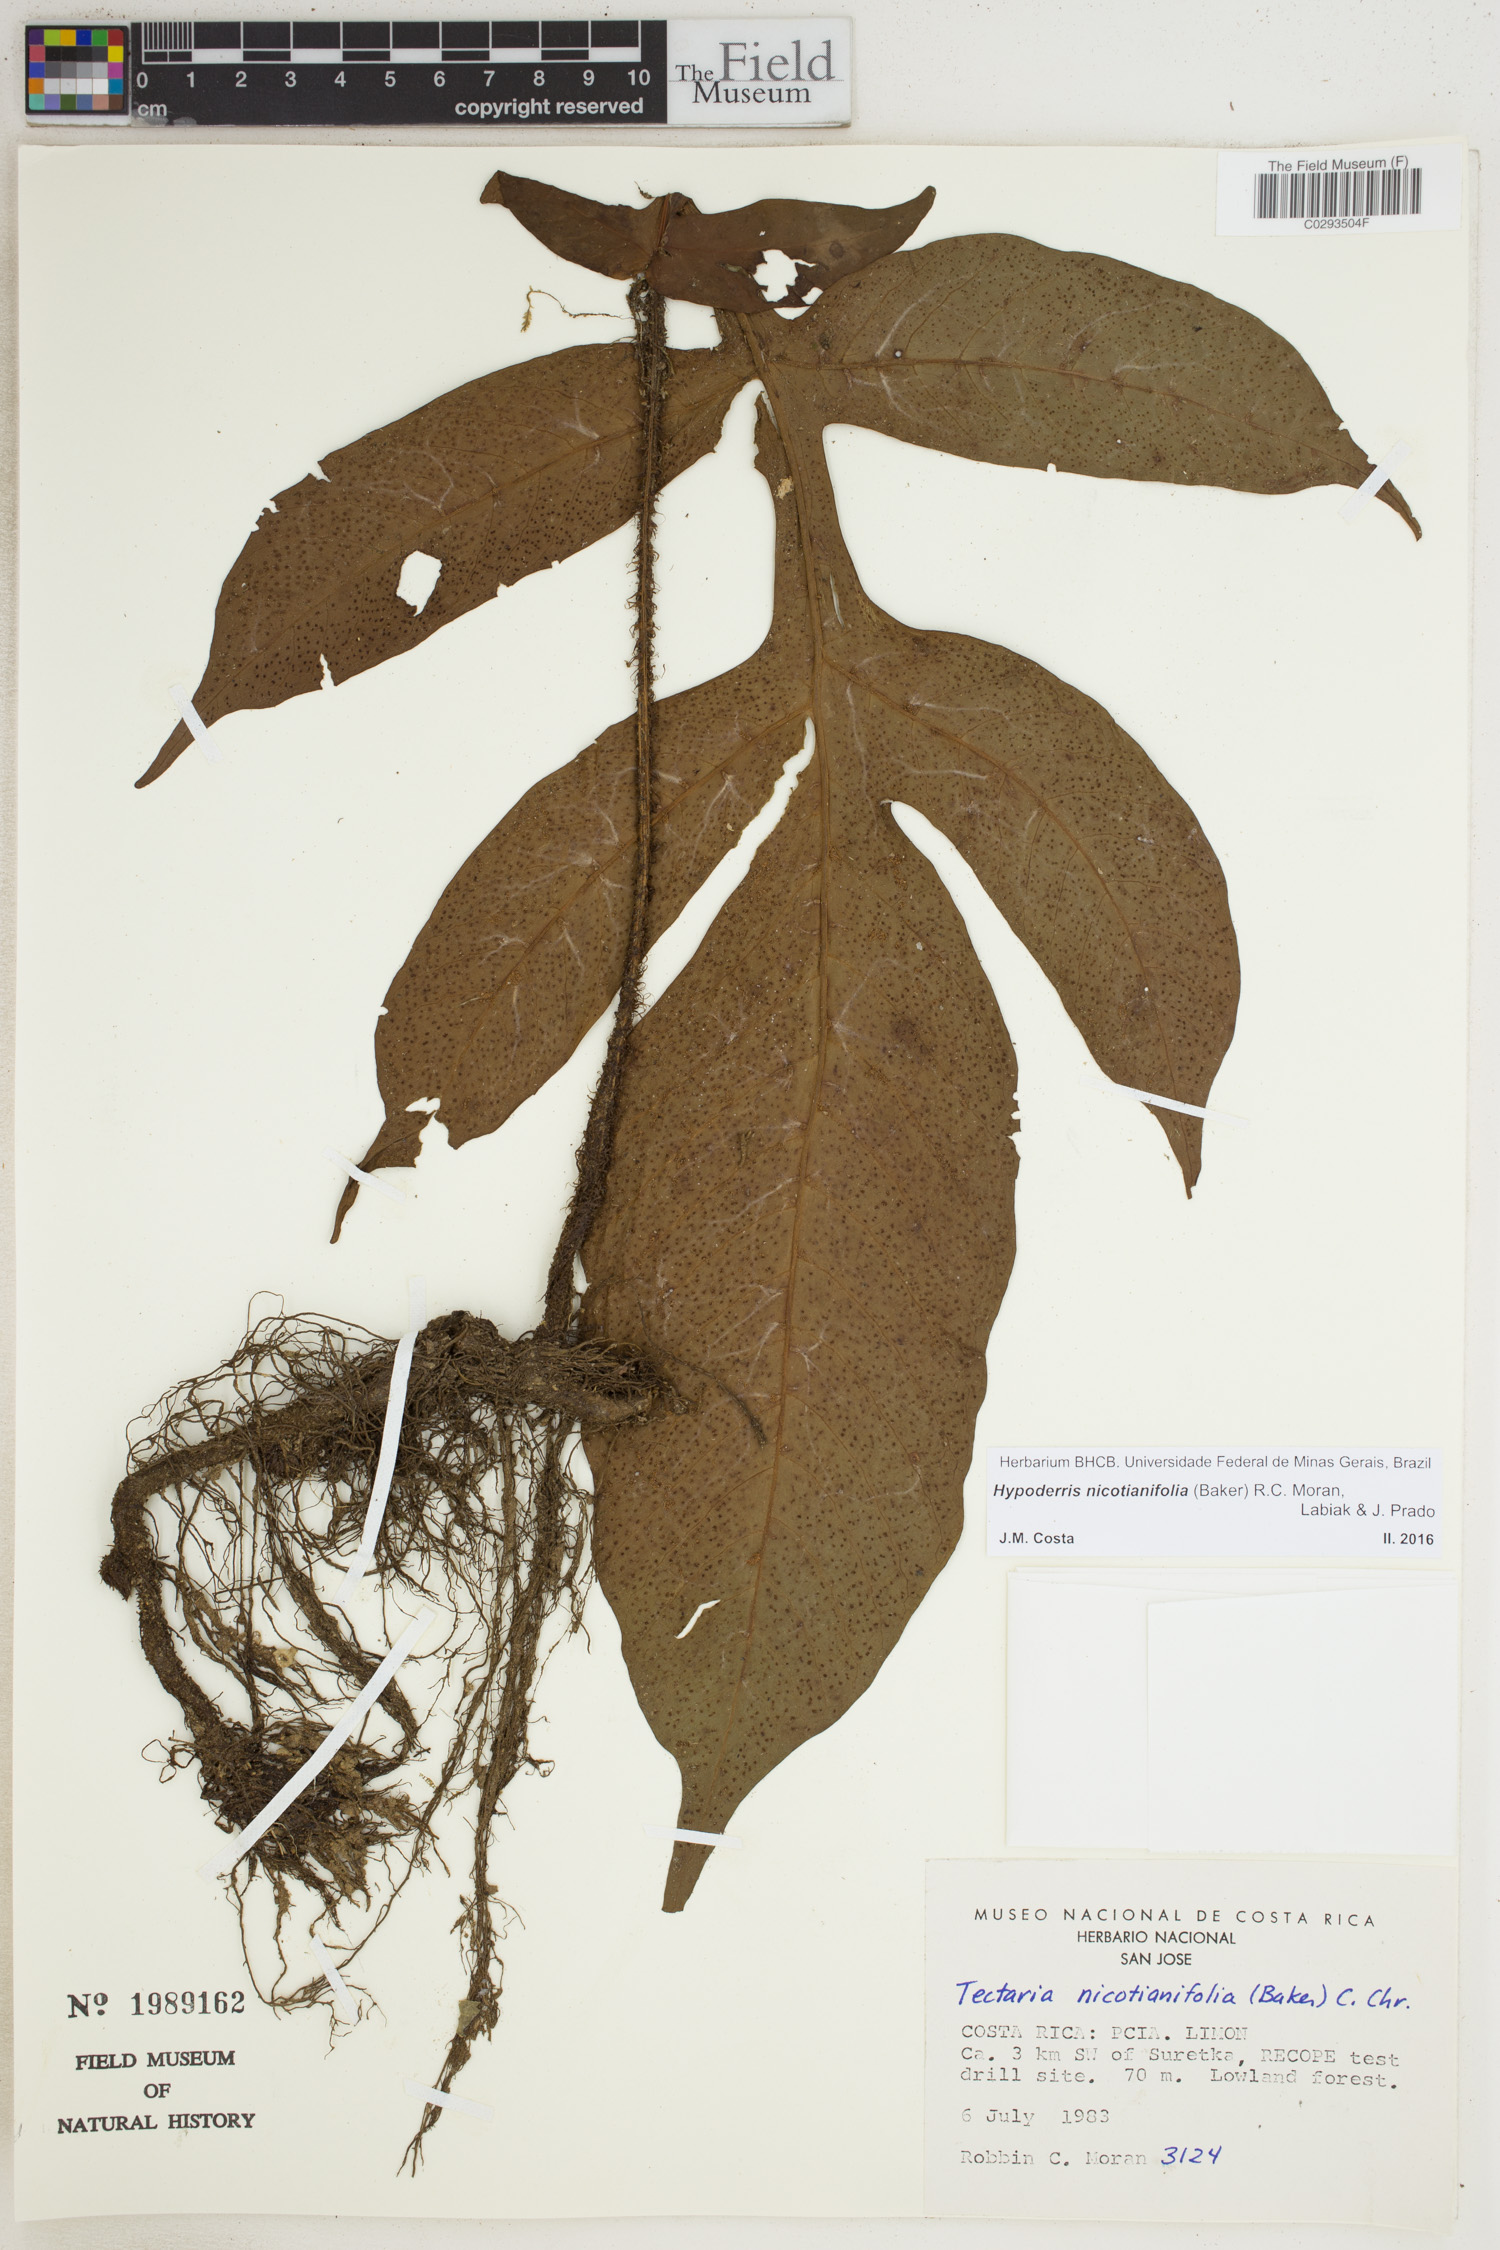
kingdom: Plantae
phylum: Tracheophyta
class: Polypodiopsida
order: Polypodiales
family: Tectariaceae
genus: Hypoderris
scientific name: Hypoderris nicotianifolia
